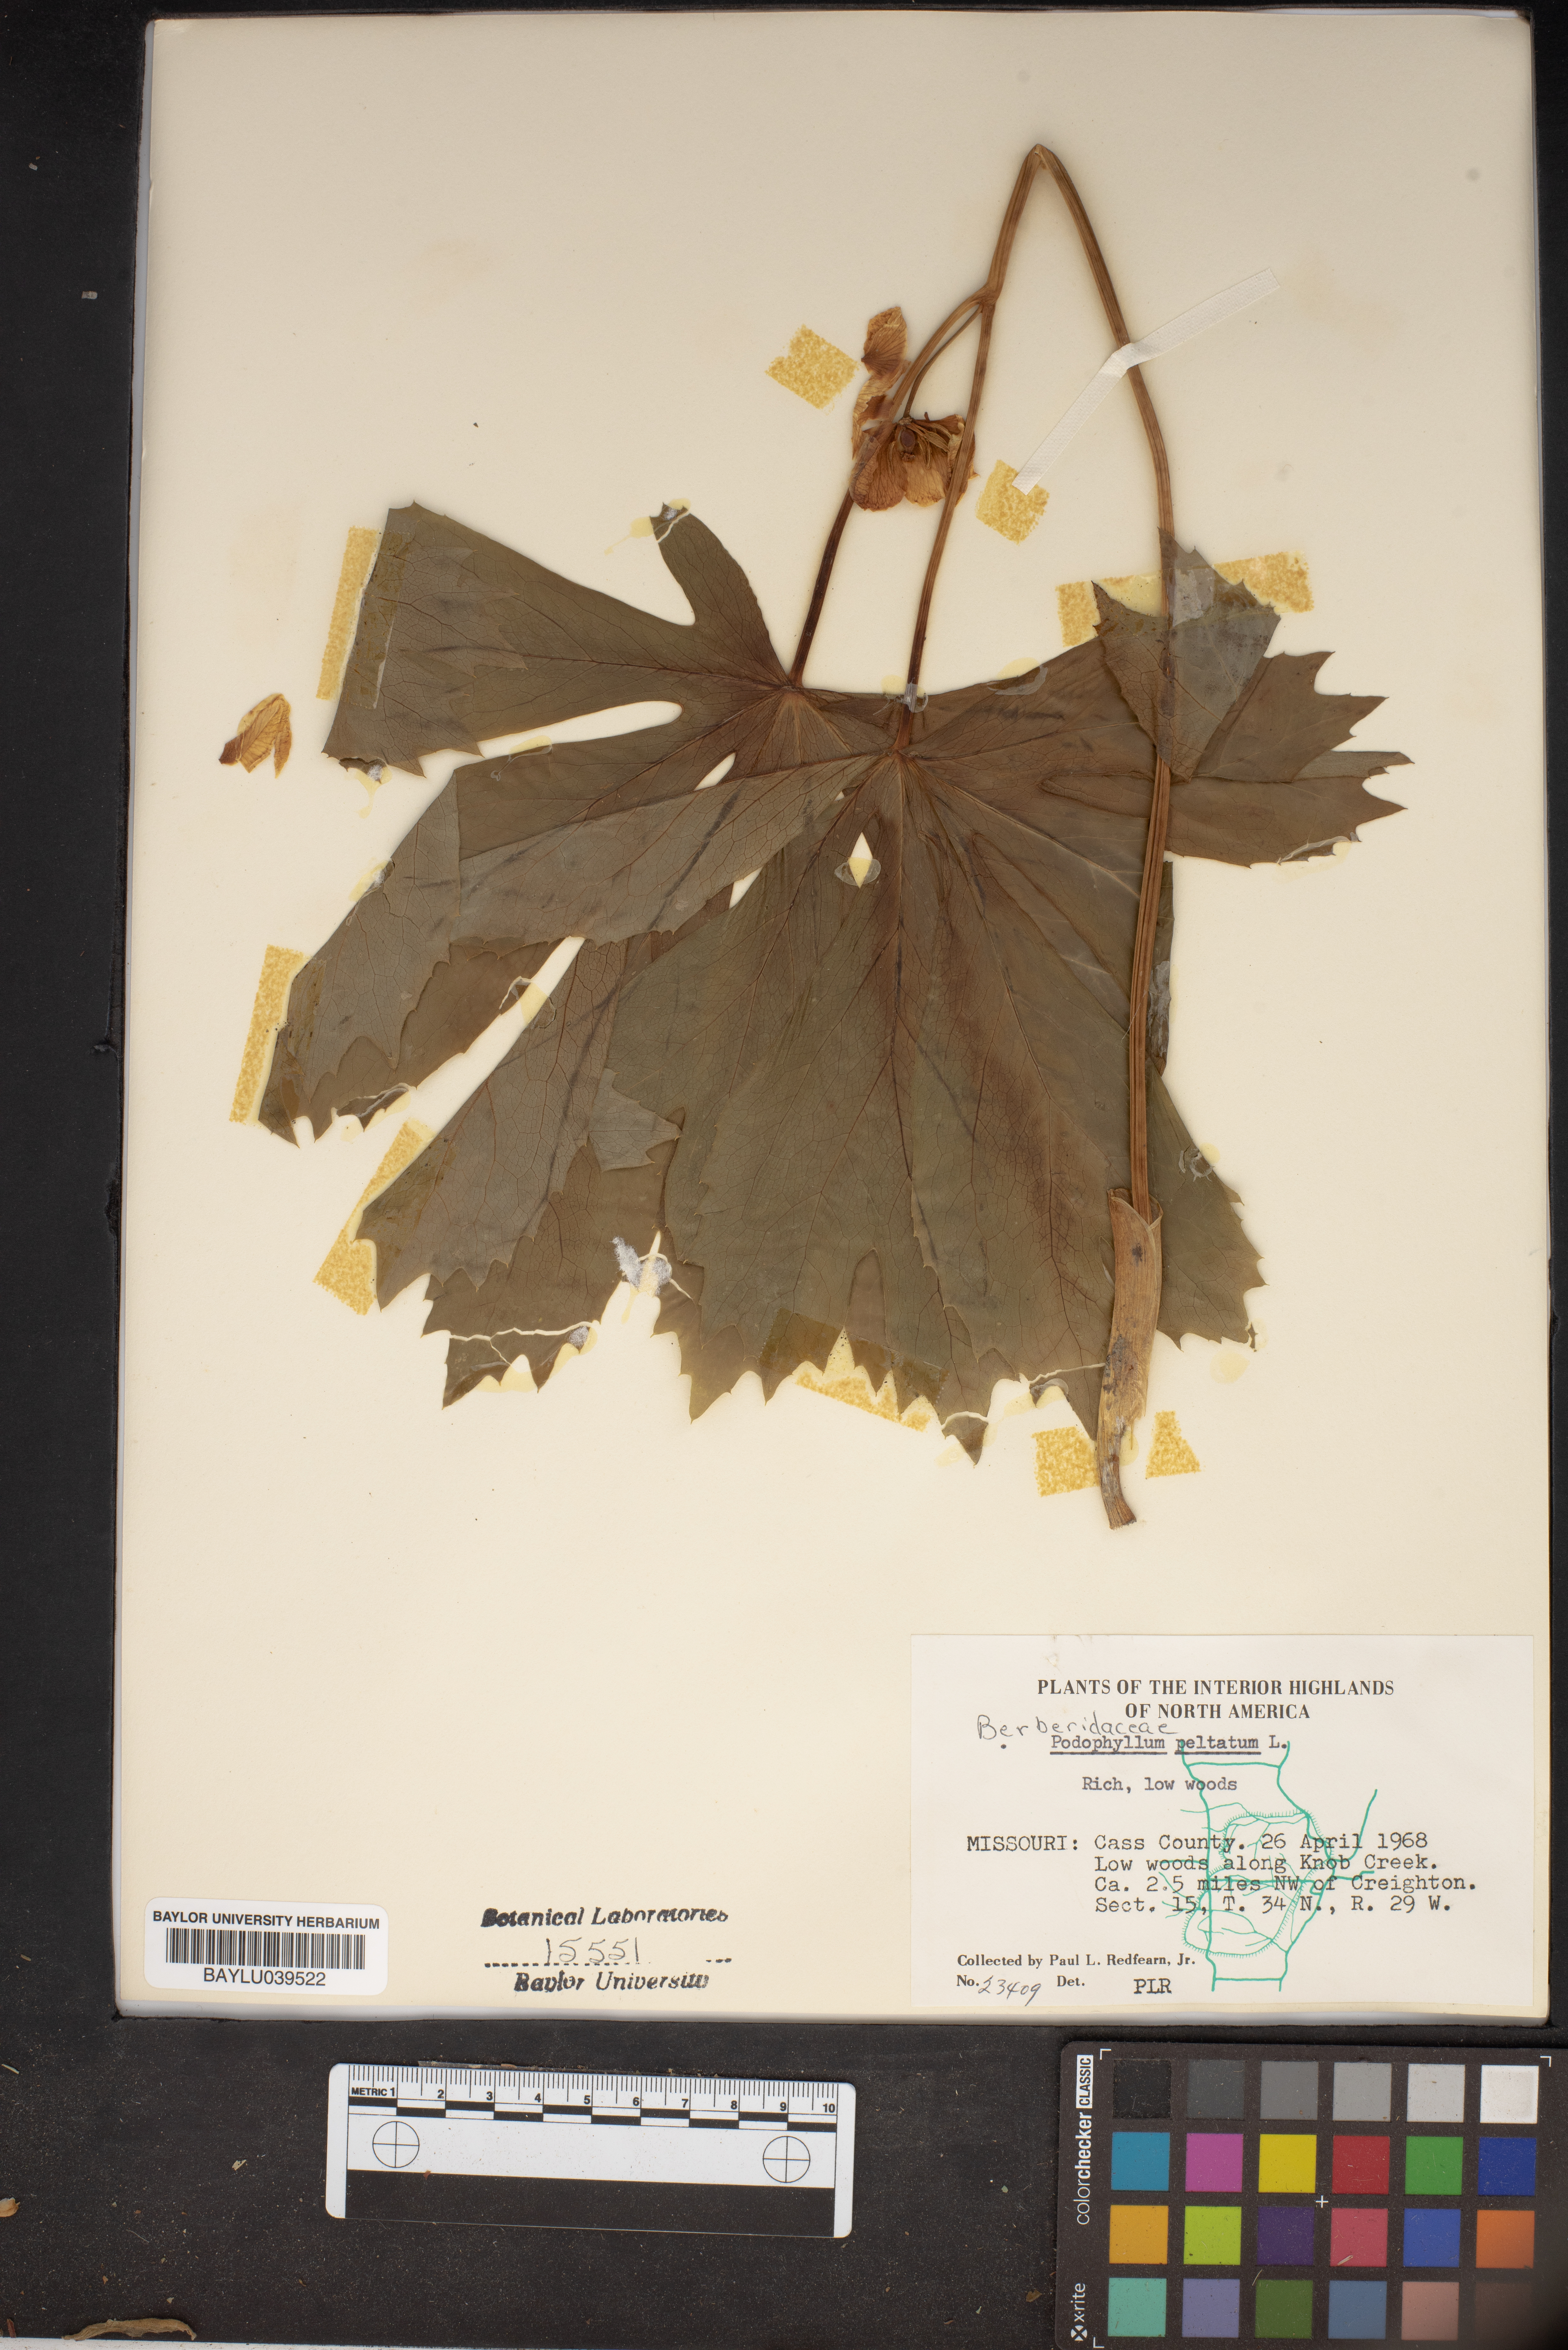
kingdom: Plantae
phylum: Tracheophyta
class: Magnoliopsida
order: Ranunculales
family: Berberidaceae
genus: Podophyllum
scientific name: Podophyllum peltatum
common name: Wild mandrake
